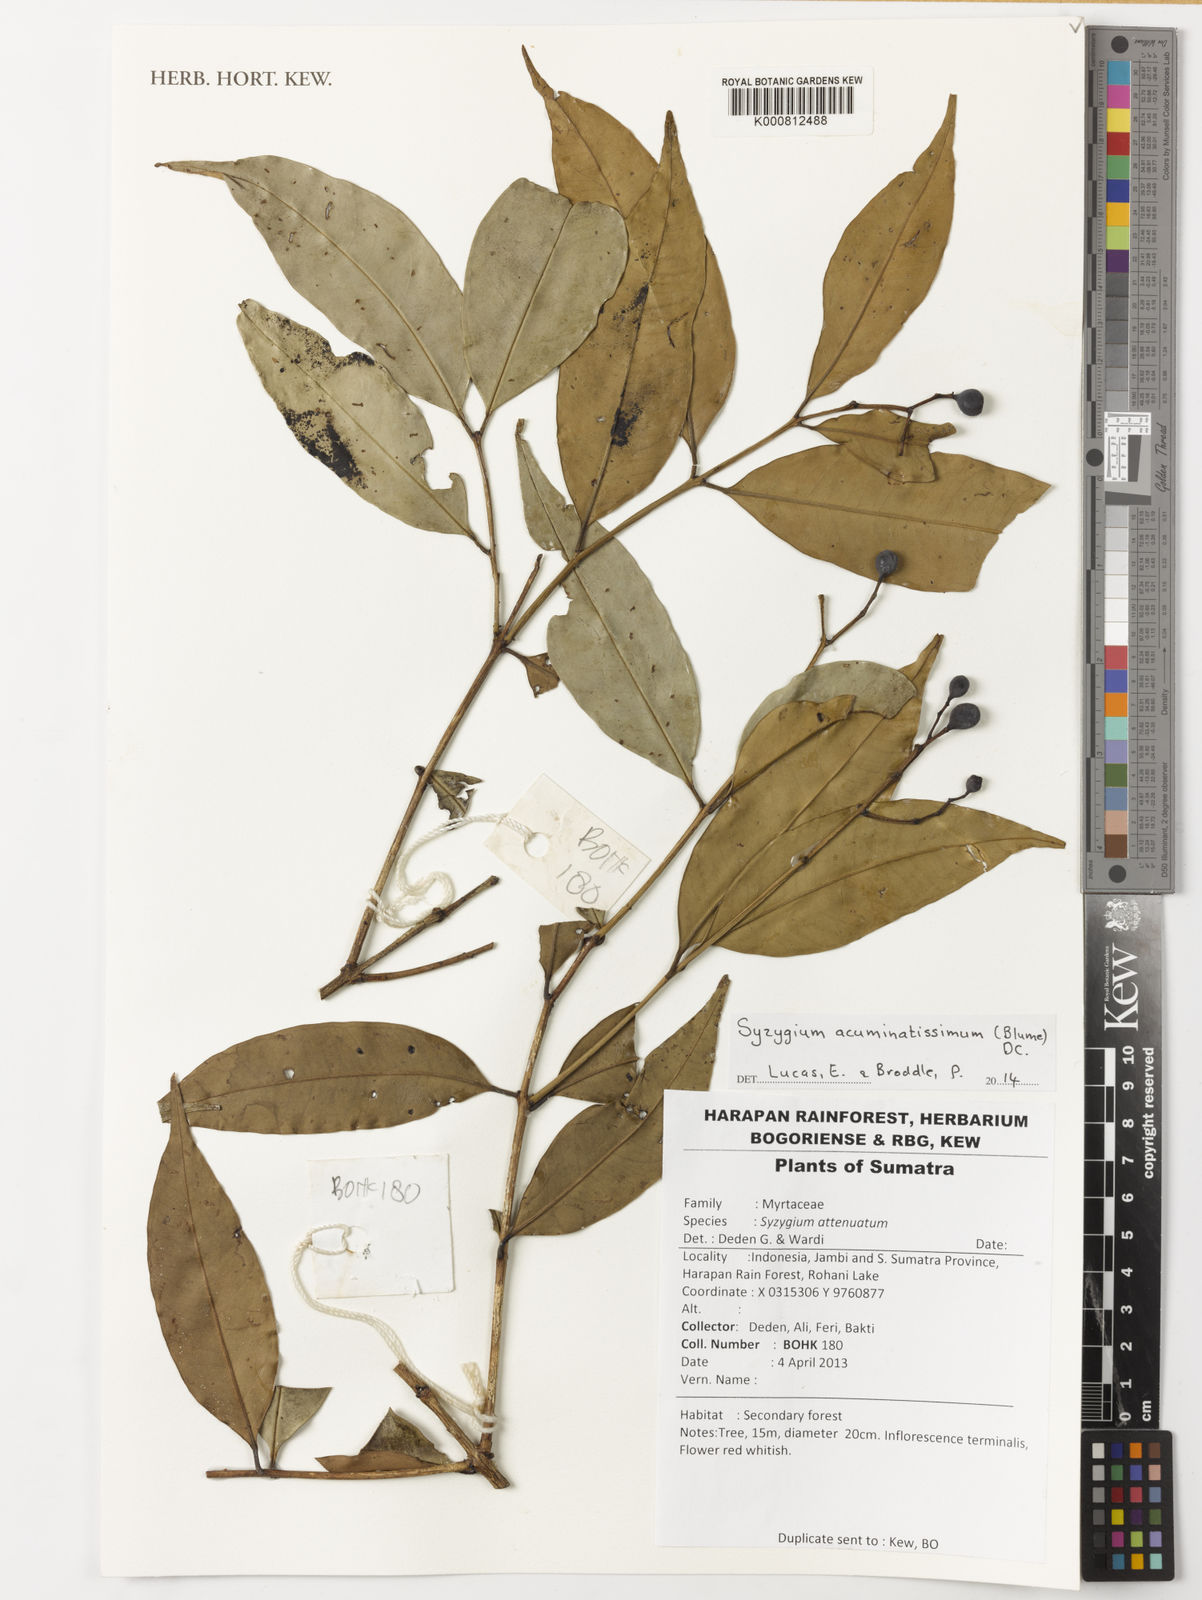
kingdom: Plantae
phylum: Tracheophyta
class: Magnoliopsida
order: Myrtales
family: Myrtaceae
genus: Syzygium
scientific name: Syzygium acuminatissimum
